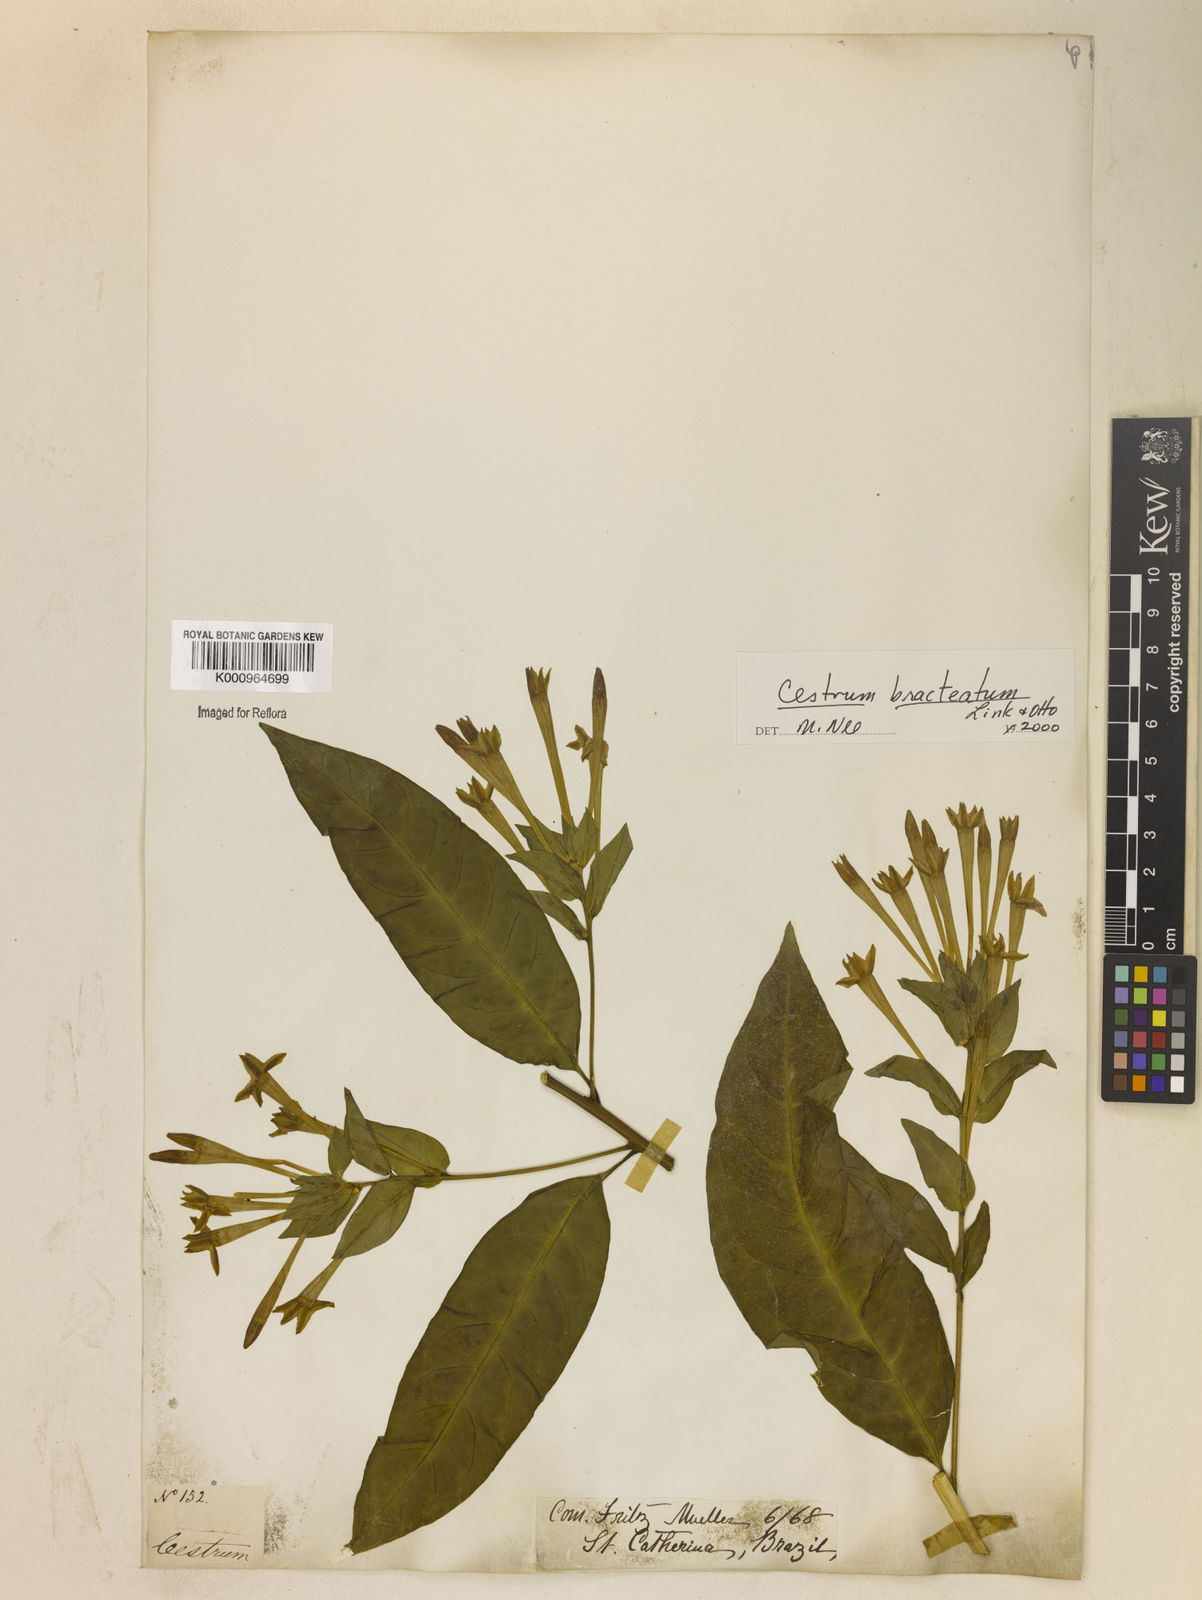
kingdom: Plantae
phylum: Tracheophyta
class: Magnoliopsida
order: Solanales
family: Solanaceae
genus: Cestrum
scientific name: Cestrum bracteatum
